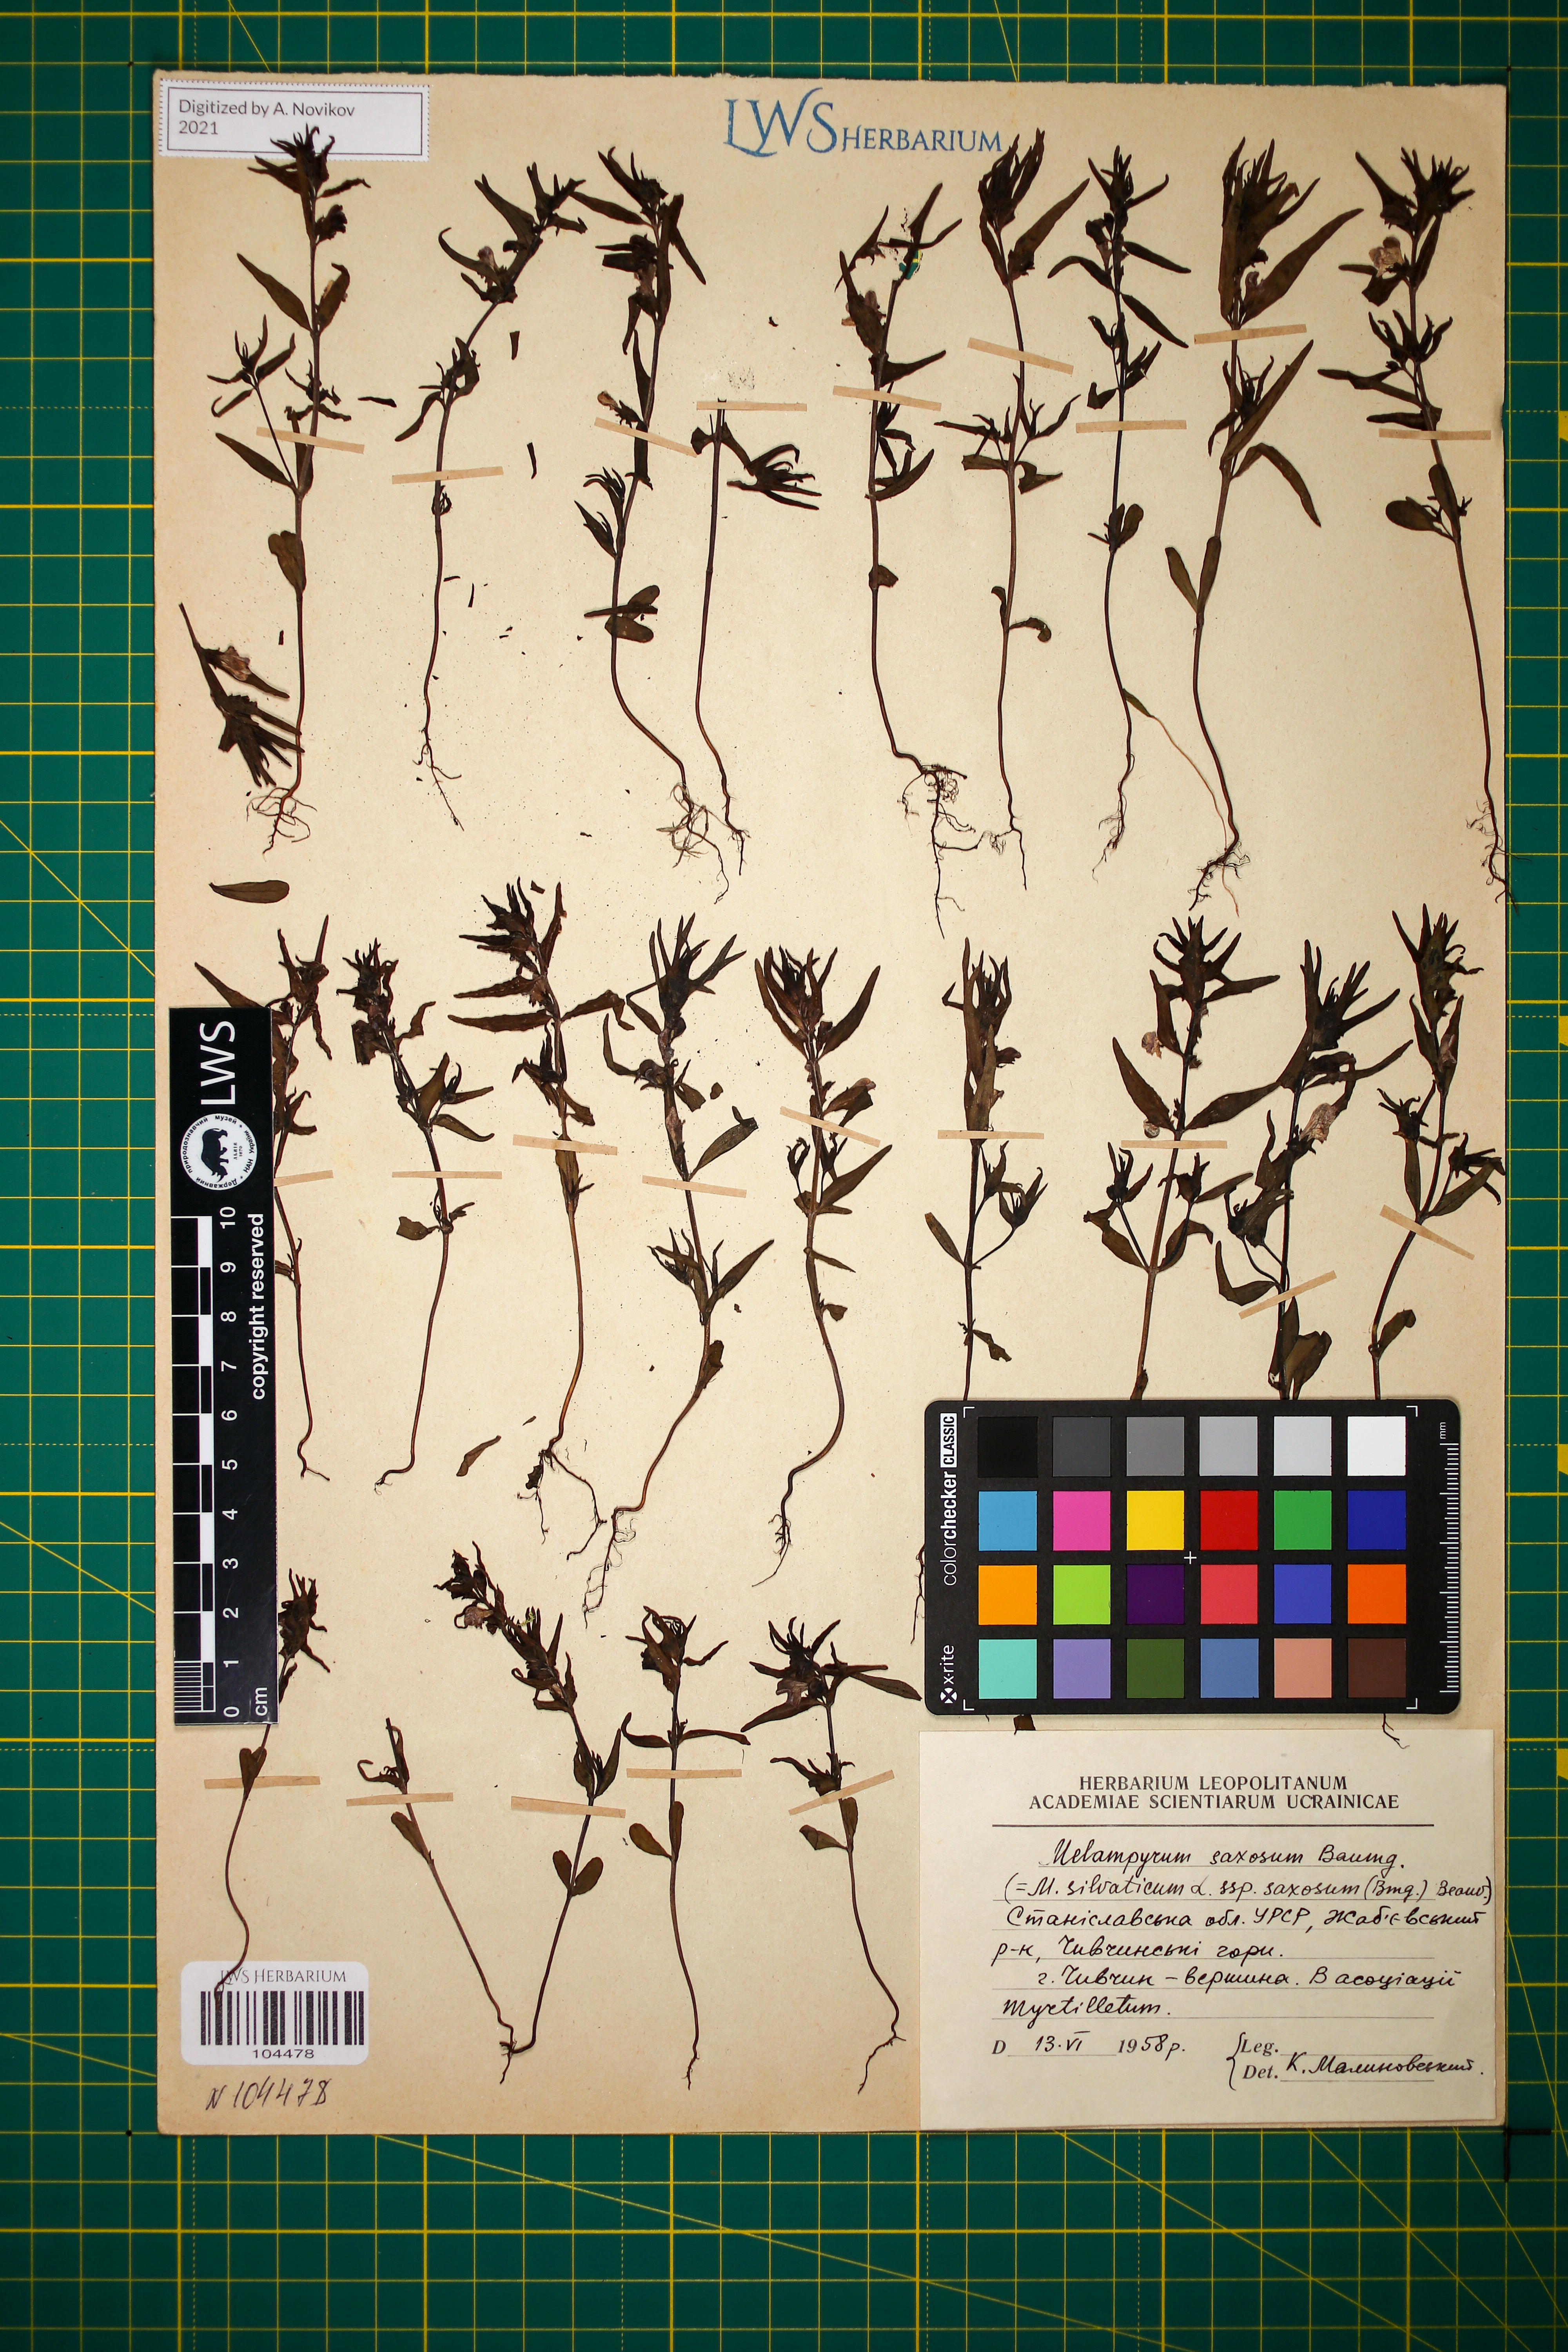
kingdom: Plantae
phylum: Tracheophyta
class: Magnoliopsida
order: Lamiales
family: Orobanchaceae
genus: Melampyrum
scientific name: Melampyrum saxosum
